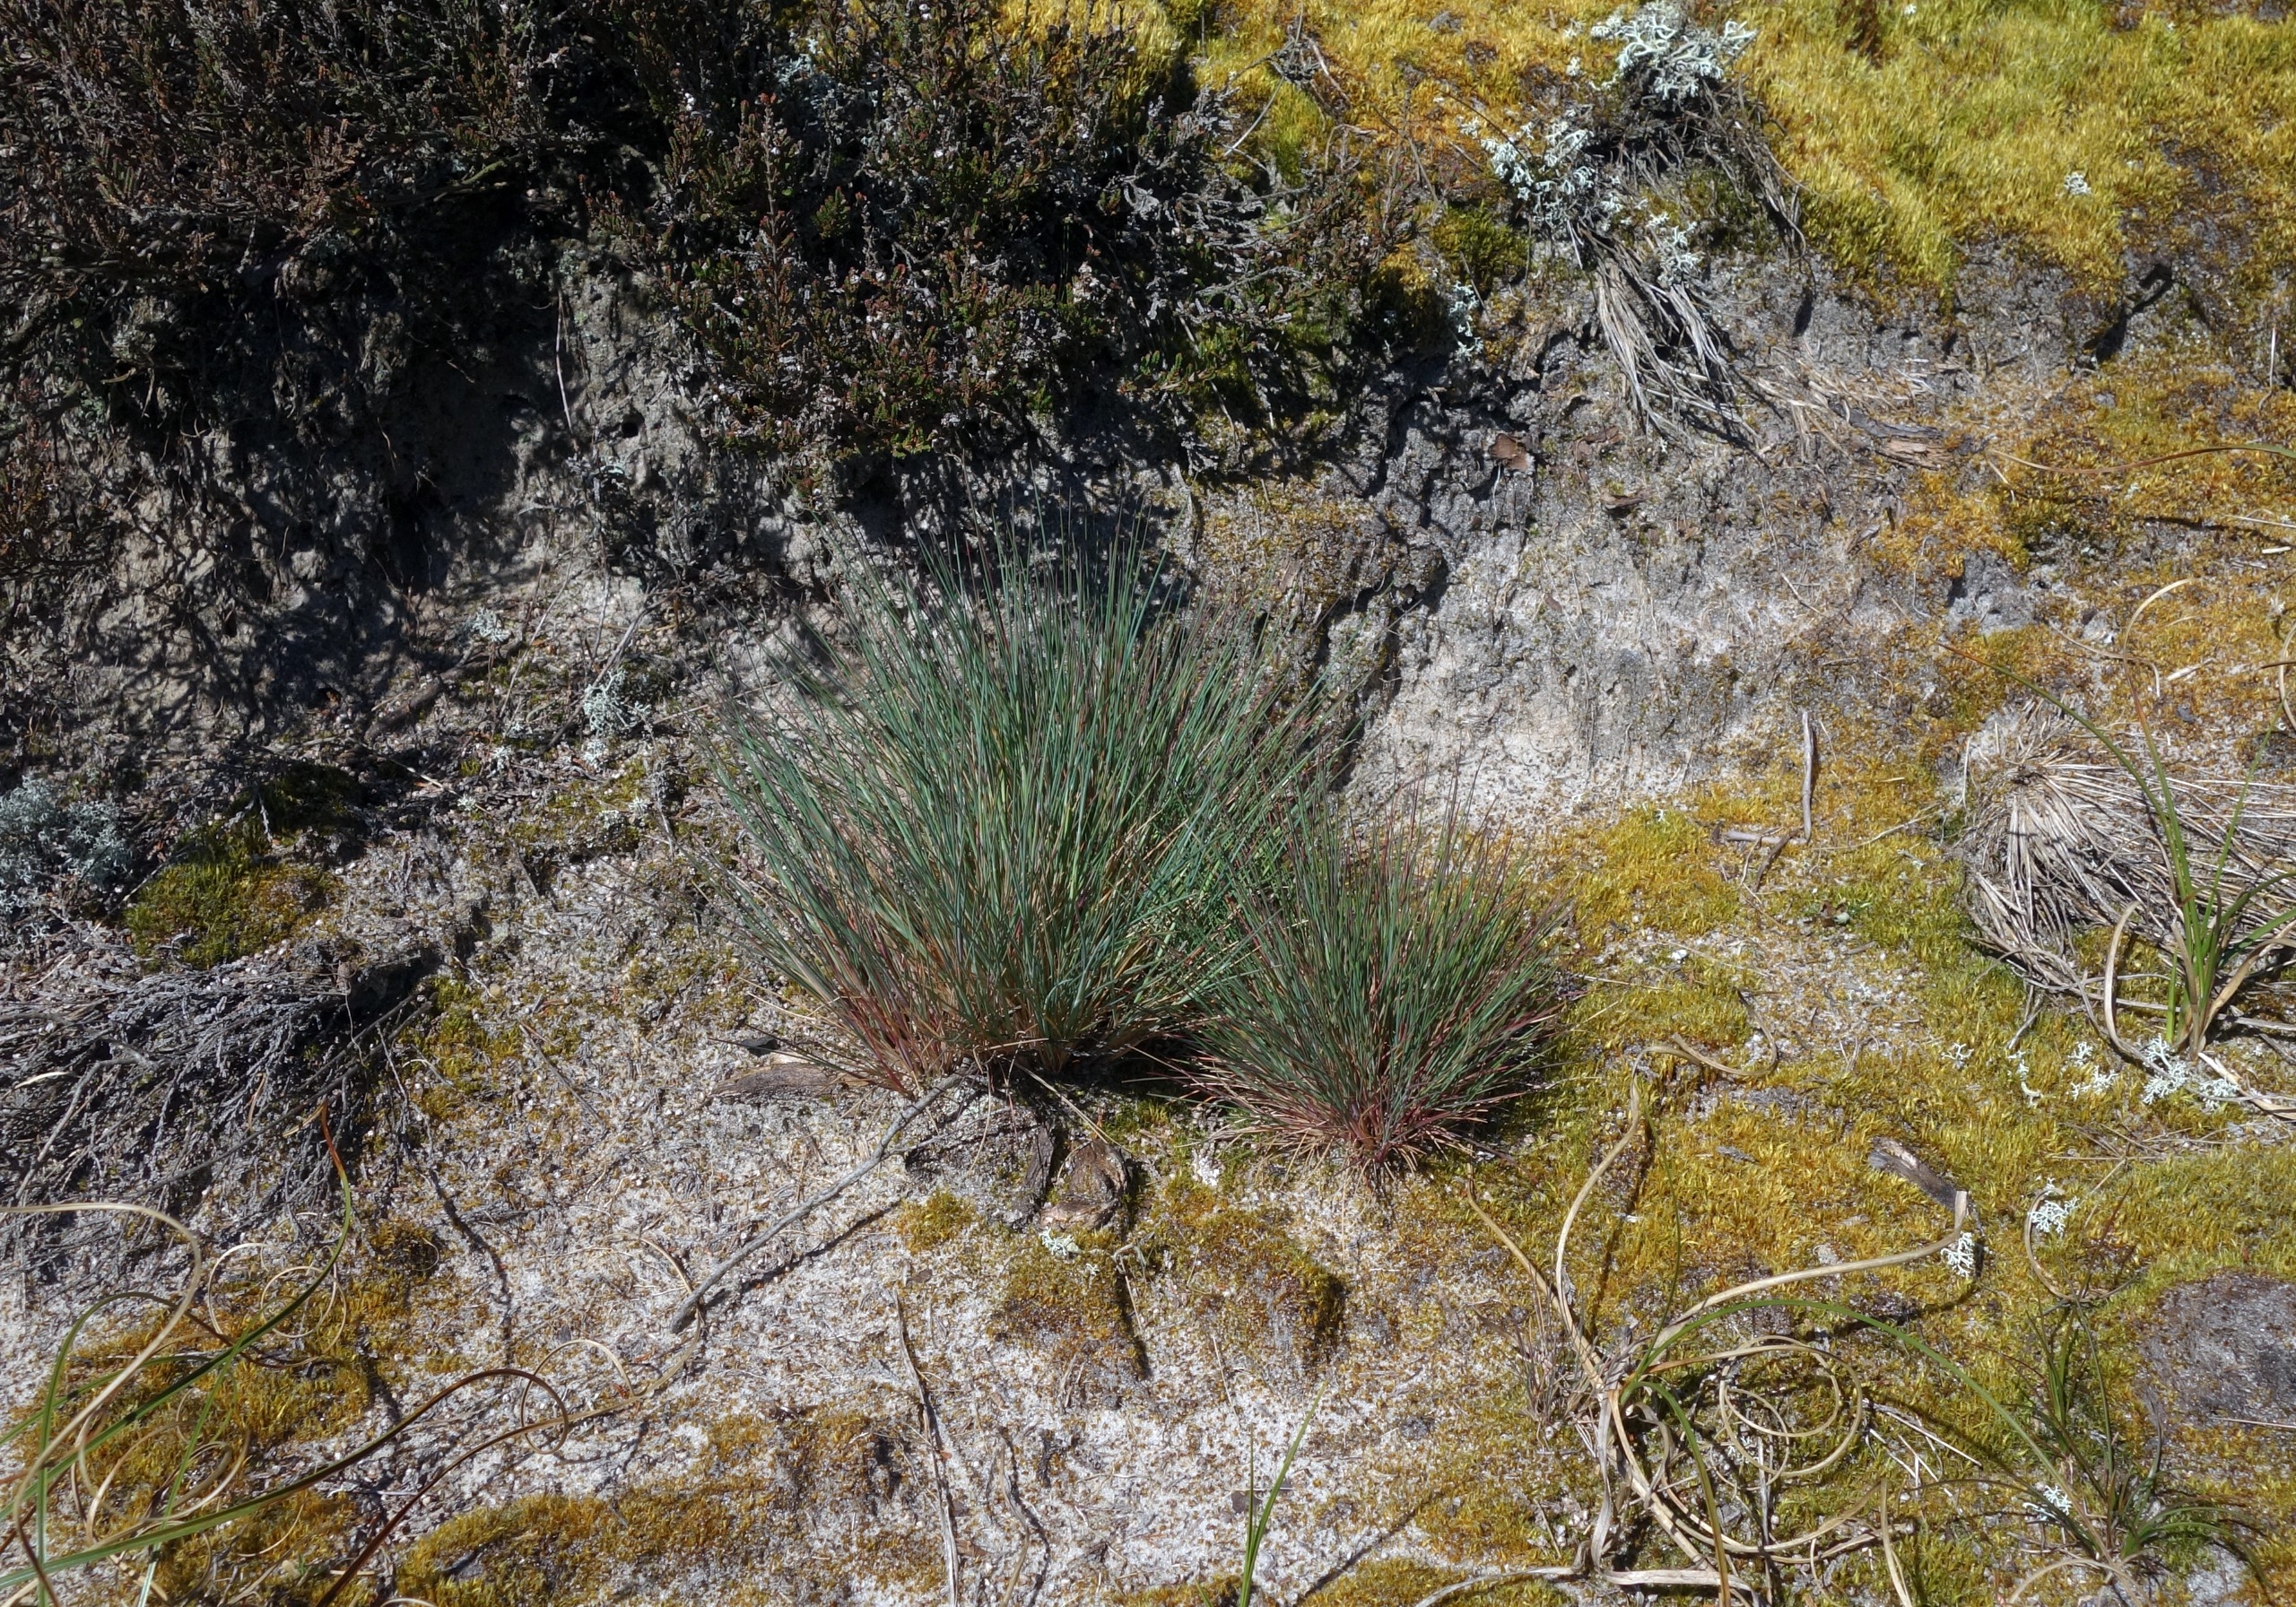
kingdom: Plantae
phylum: Tracheophyta
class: Liliopsida
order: Poales
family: Poaceae
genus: Corynephorus
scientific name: Corynephorus canescens
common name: Sandskæg
